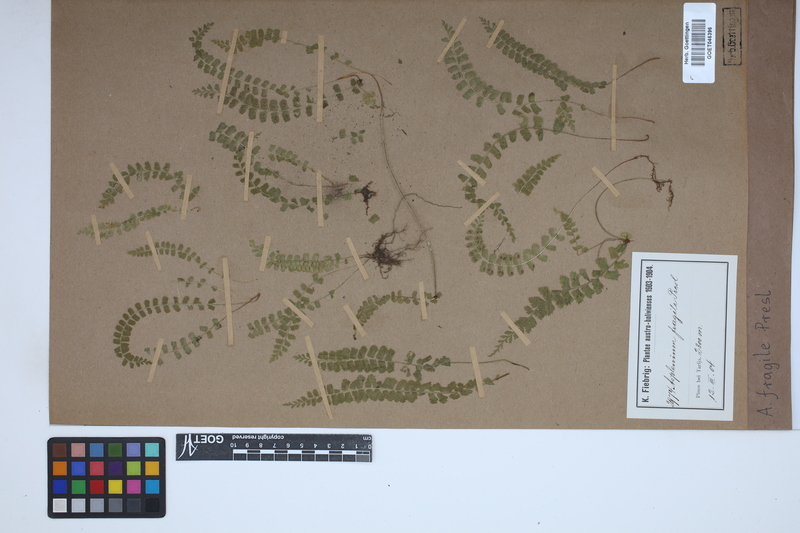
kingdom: Plantae
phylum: Tracheophyta
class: Polypodiopsida
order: Polypodiales
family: Aspleniaceae
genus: Asplenium
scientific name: Asplenium peruvianum
